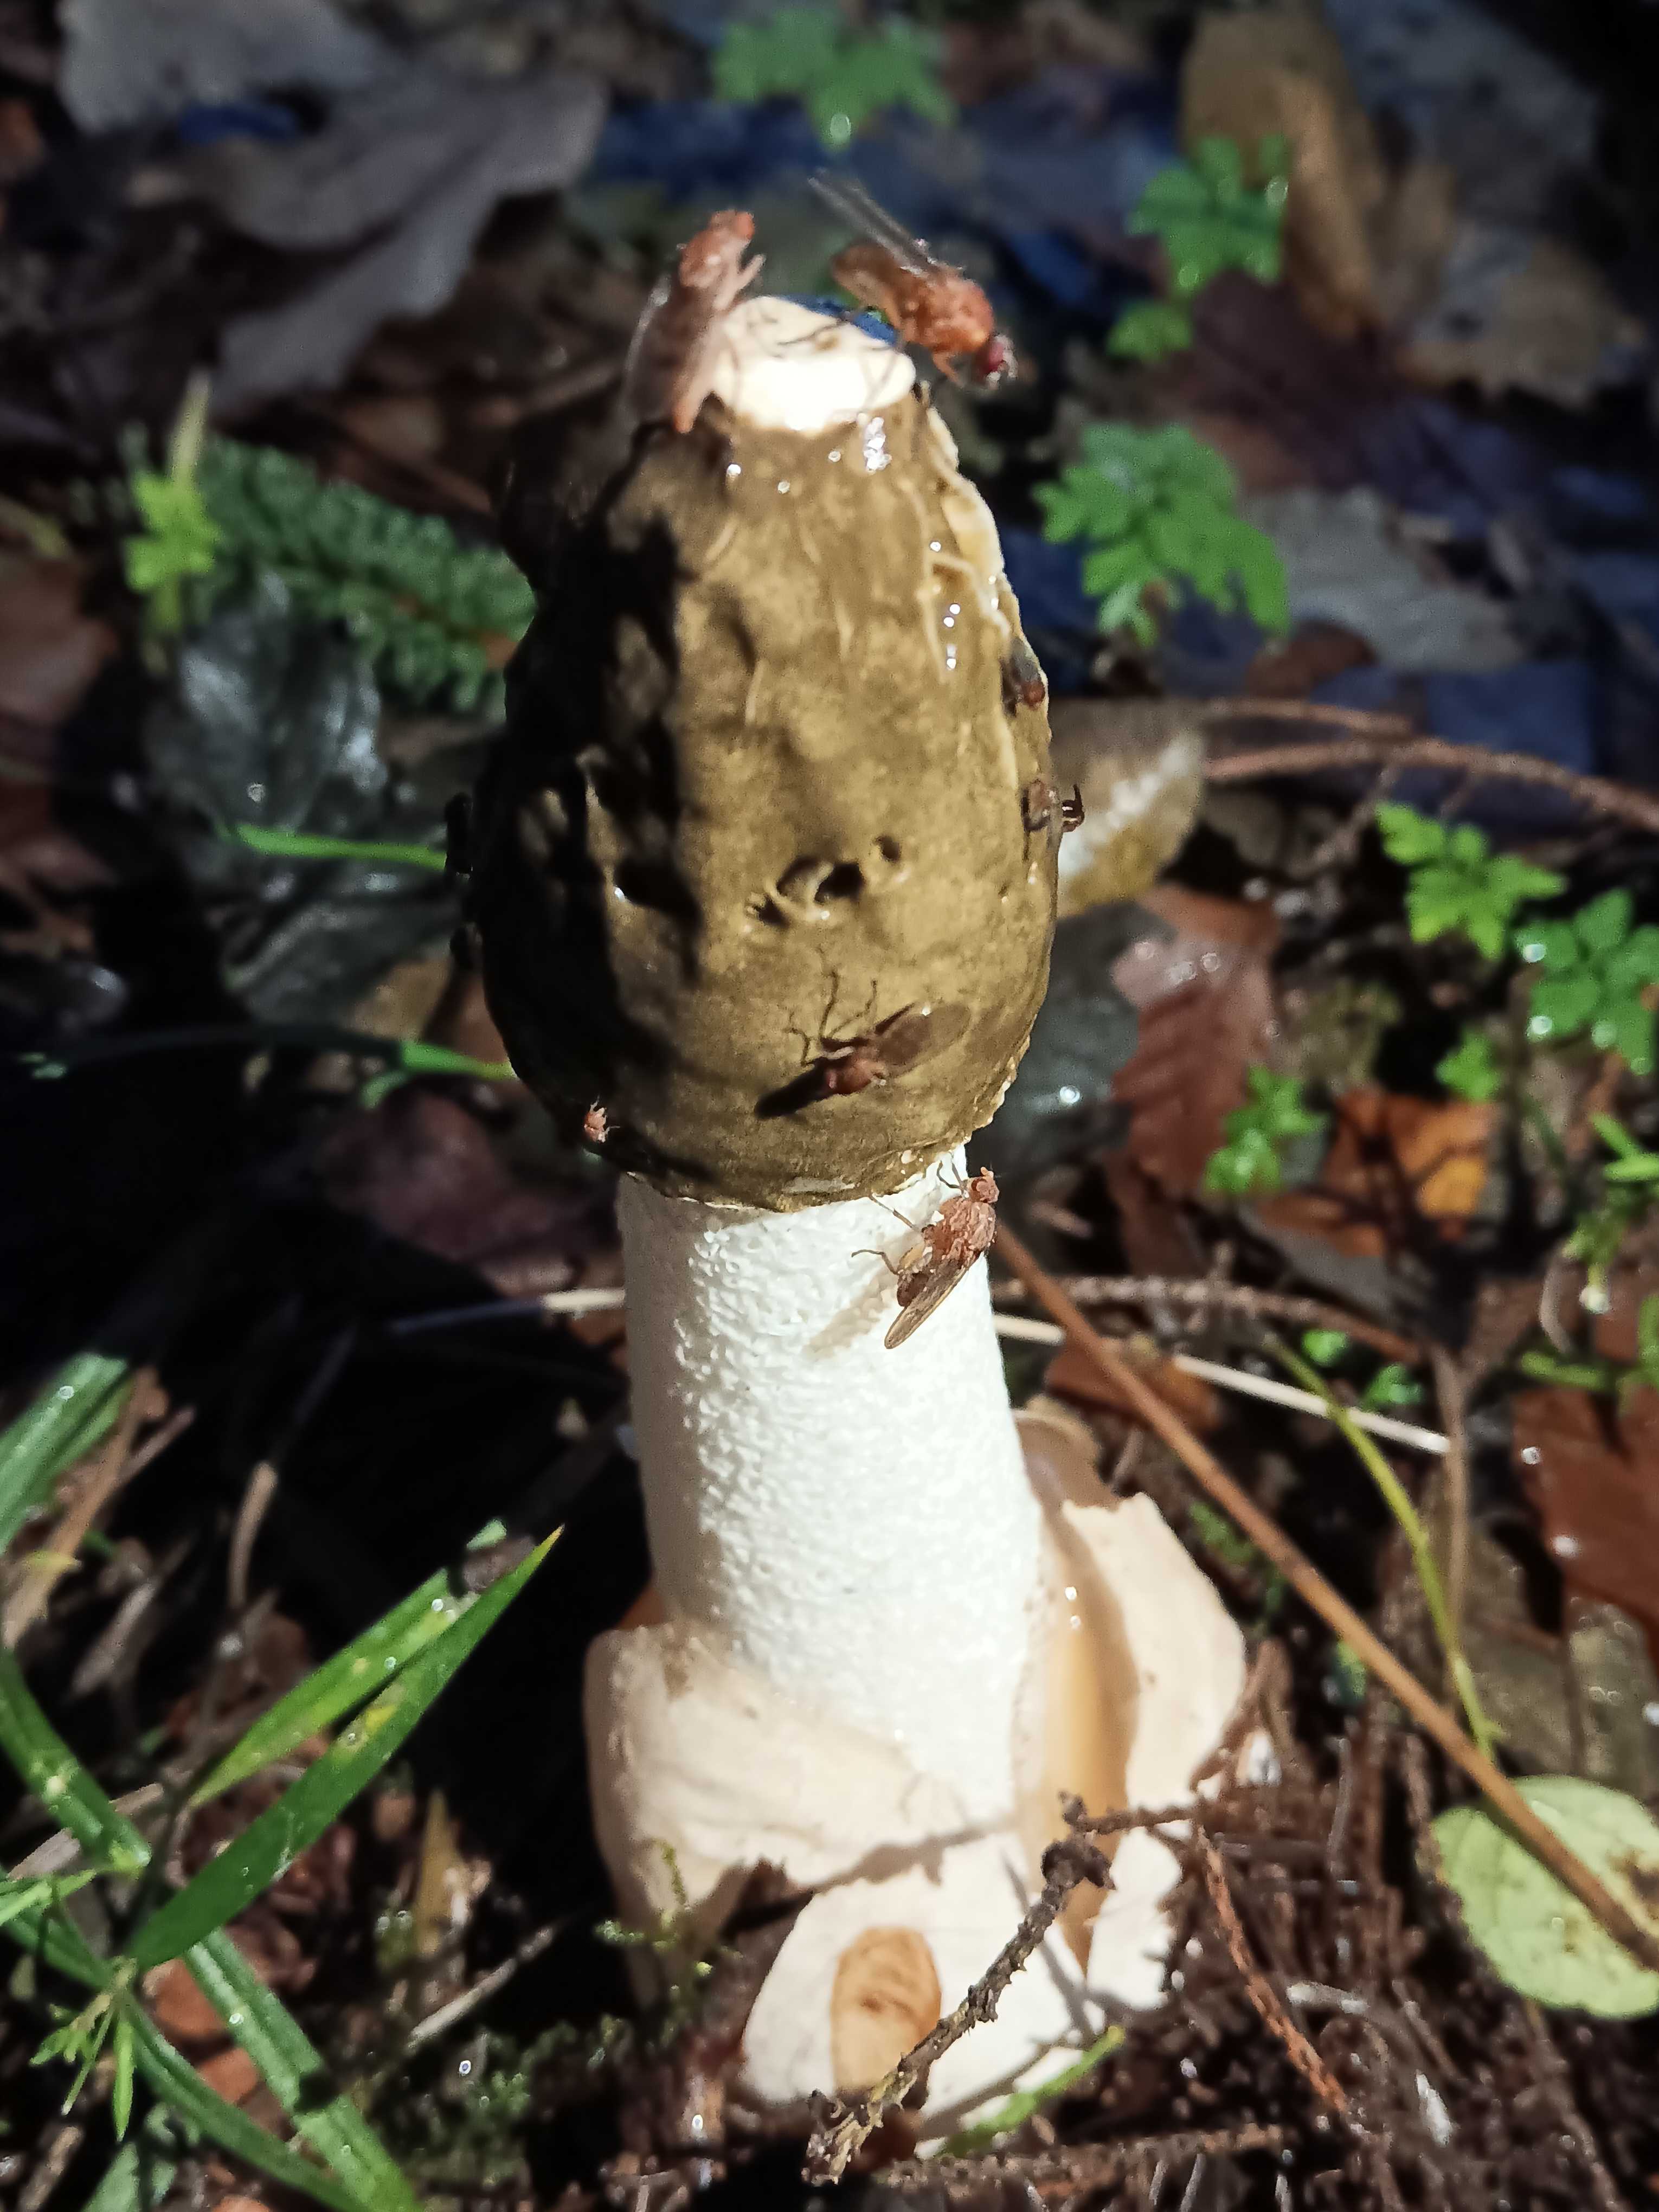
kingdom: Fungi
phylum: Basidiomycota
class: Agaricomycetes
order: Phallales
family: Phallaceae
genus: Phallus
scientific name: Phallus impudicus
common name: almindelig stinksvamp
